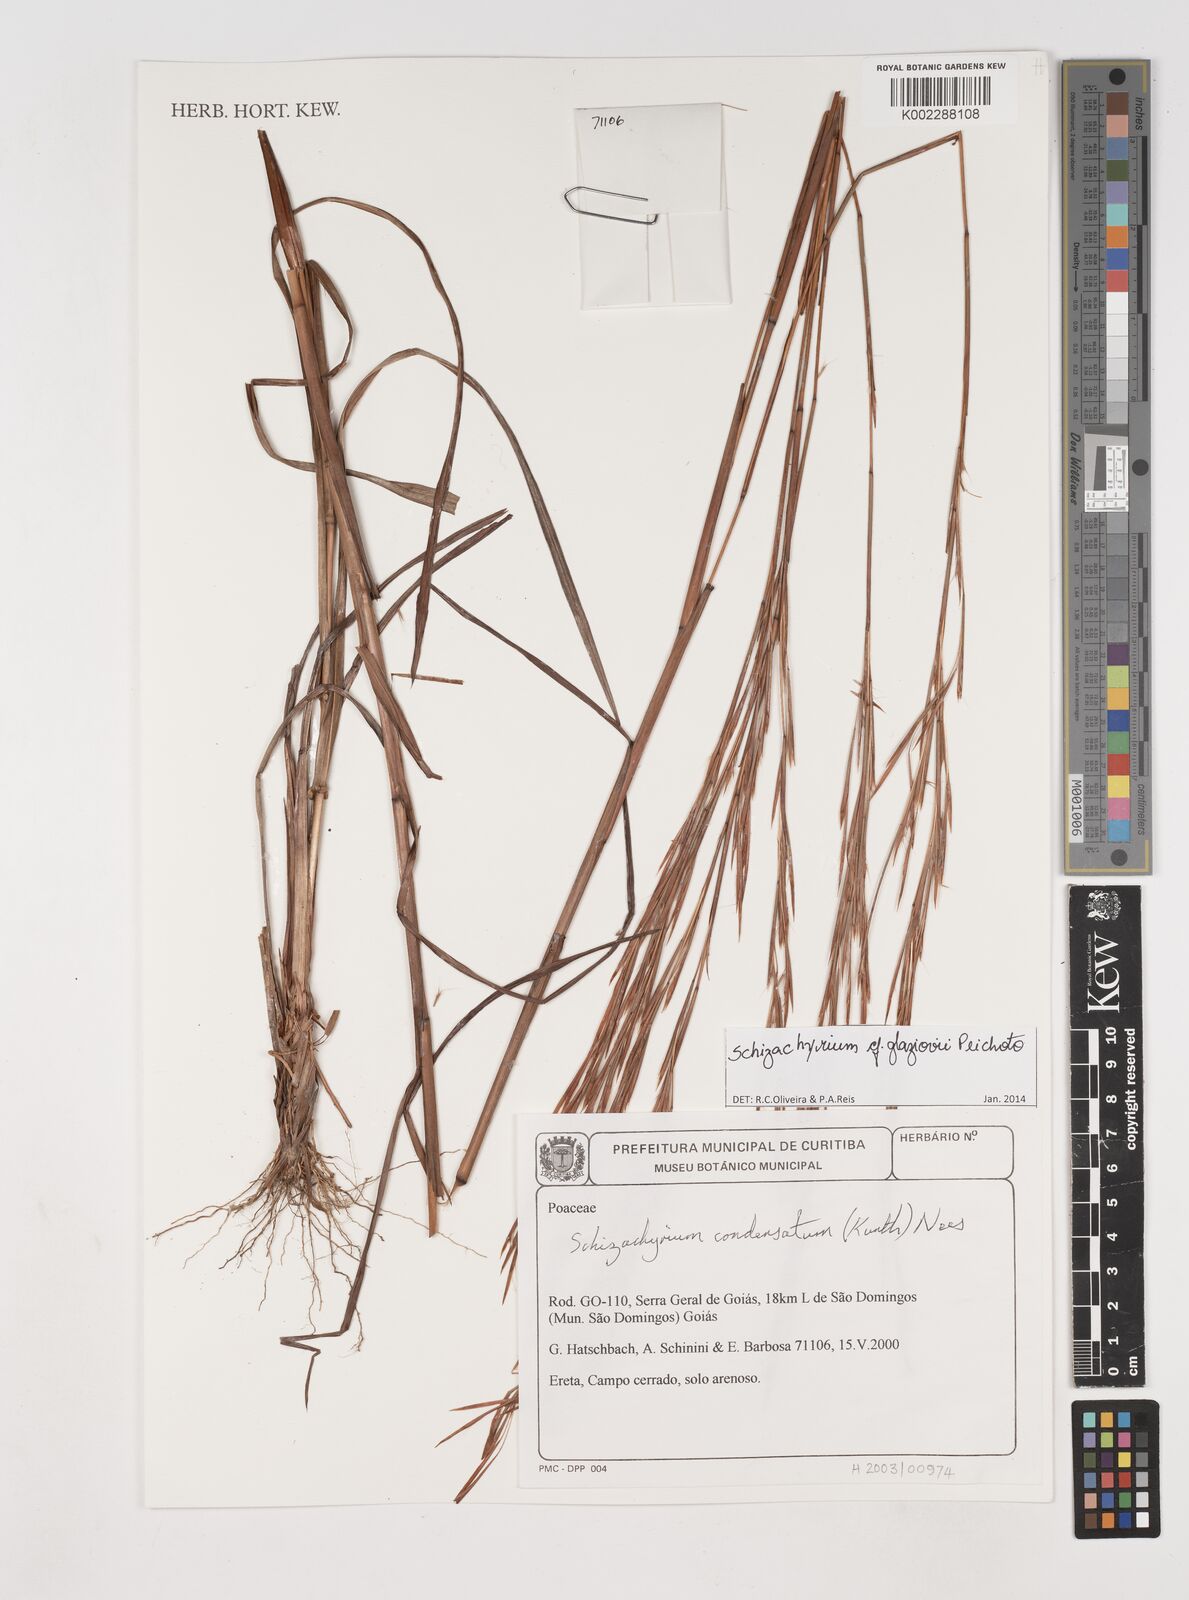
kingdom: Plantae
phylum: Tracheophyta
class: Liliopsida
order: Poales
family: Poaceae
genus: Schizachyrium
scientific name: Schizachyrium condensatum
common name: Bush beardgrass
